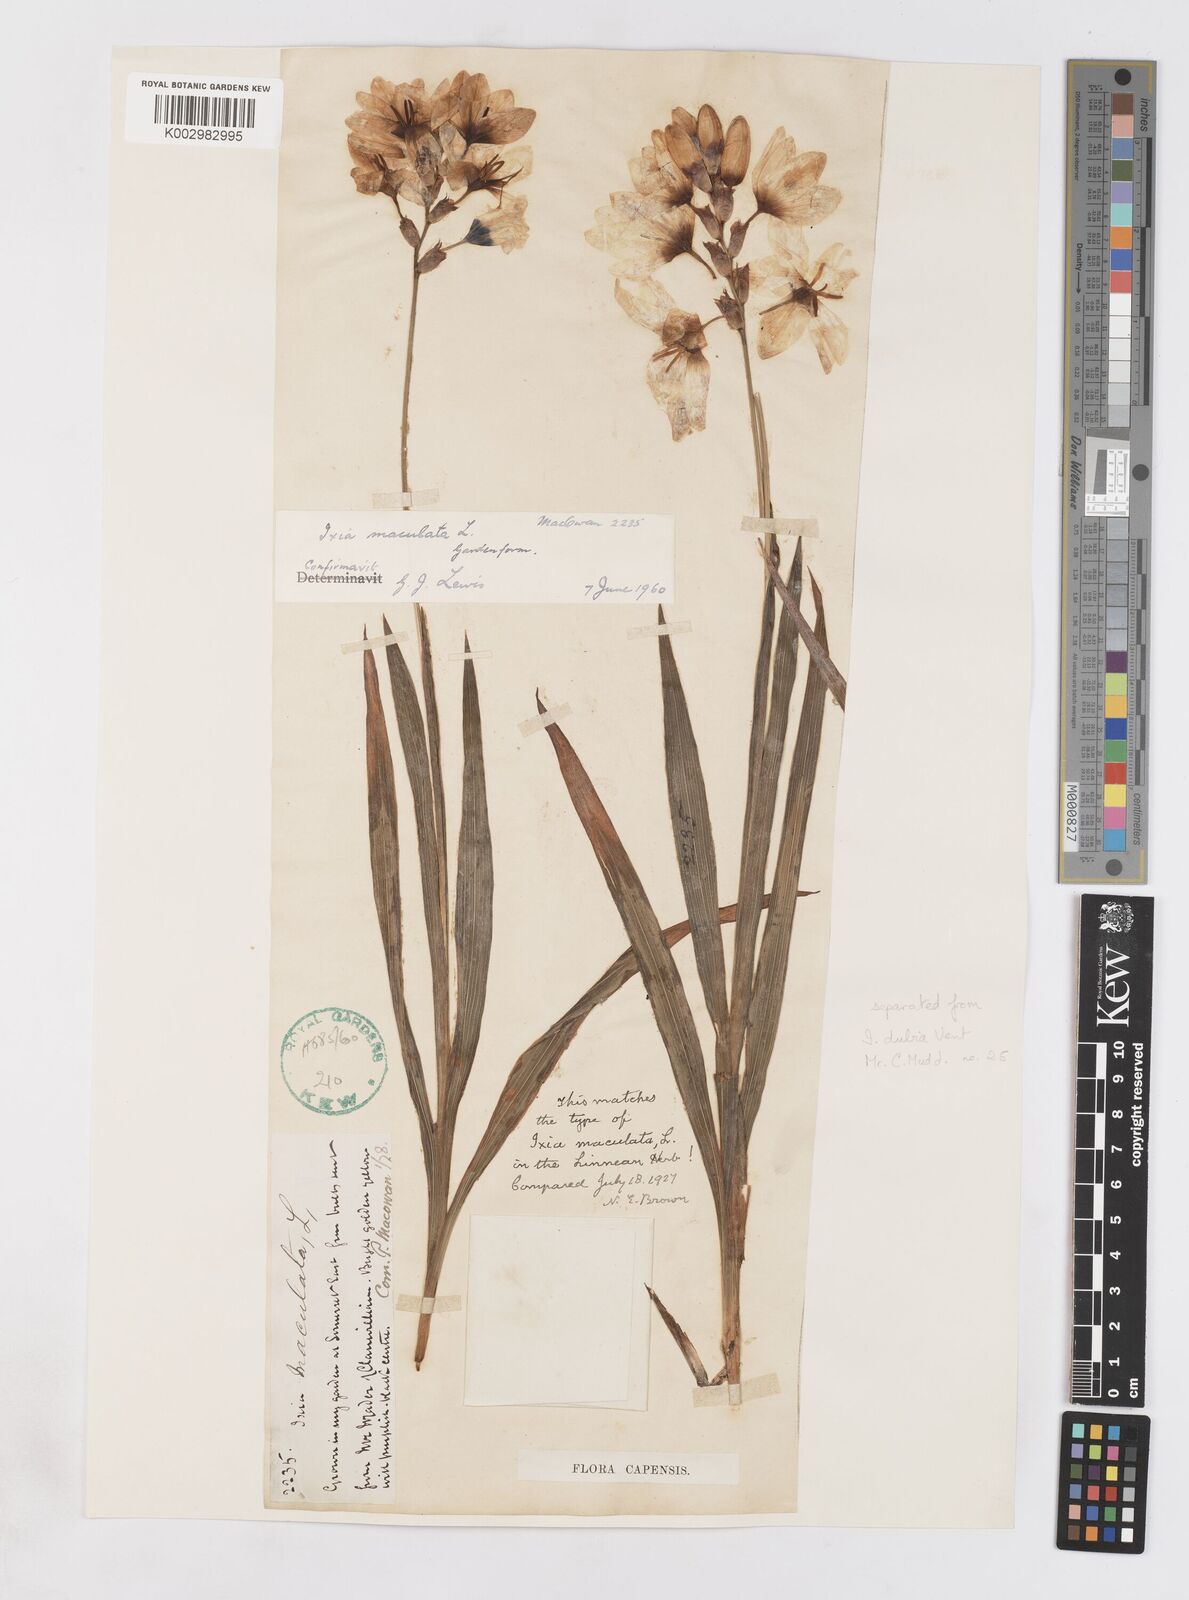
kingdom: Plantae
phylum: Tracheophyta
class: Liliopsida
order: Asparagales
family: Iridaceae
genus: Ixia
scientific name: Ixia maculata
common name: Spotted african cornlily
